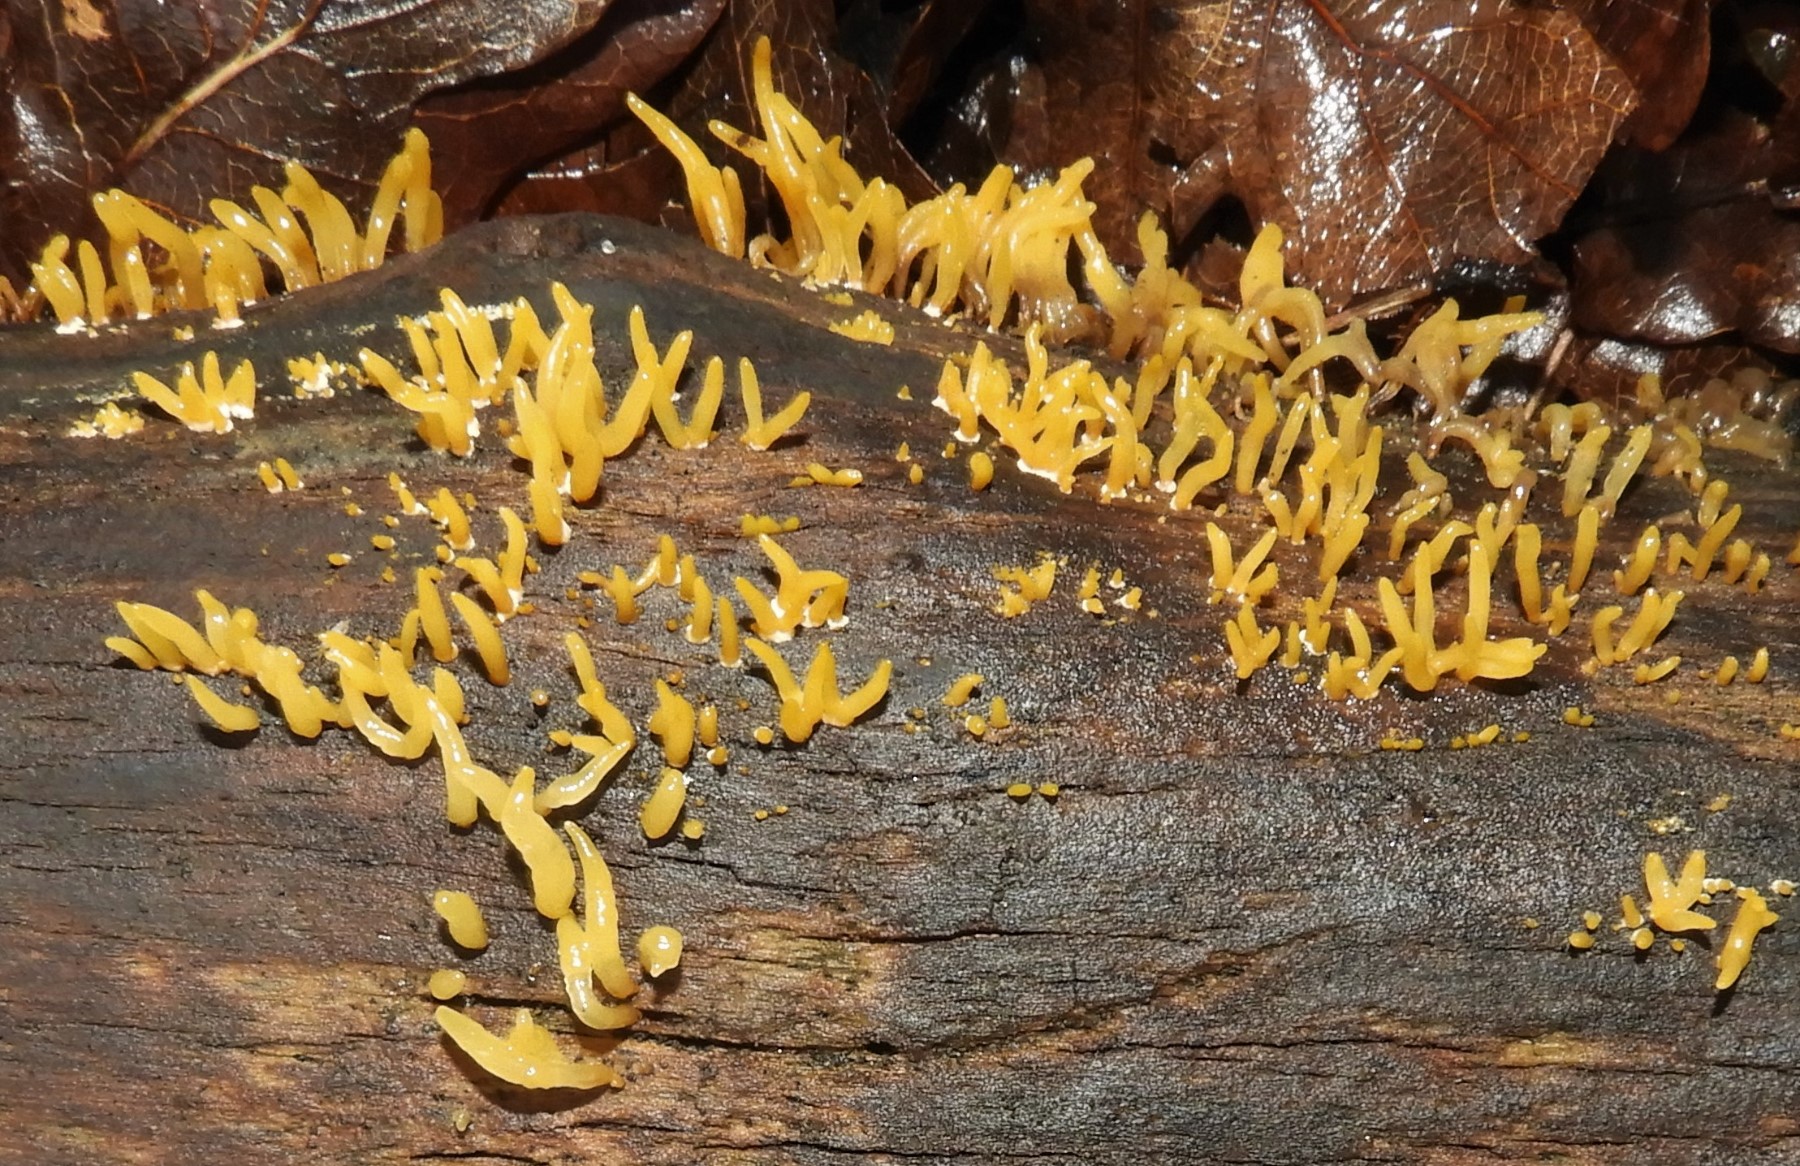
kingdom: Fungi
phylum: Basidiomycota
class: Dacrymycetes
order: Dacrymycetales
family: Dacrymycetaceae
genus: Calocera
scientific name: Calocera cornea
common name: liden guldgaffel
